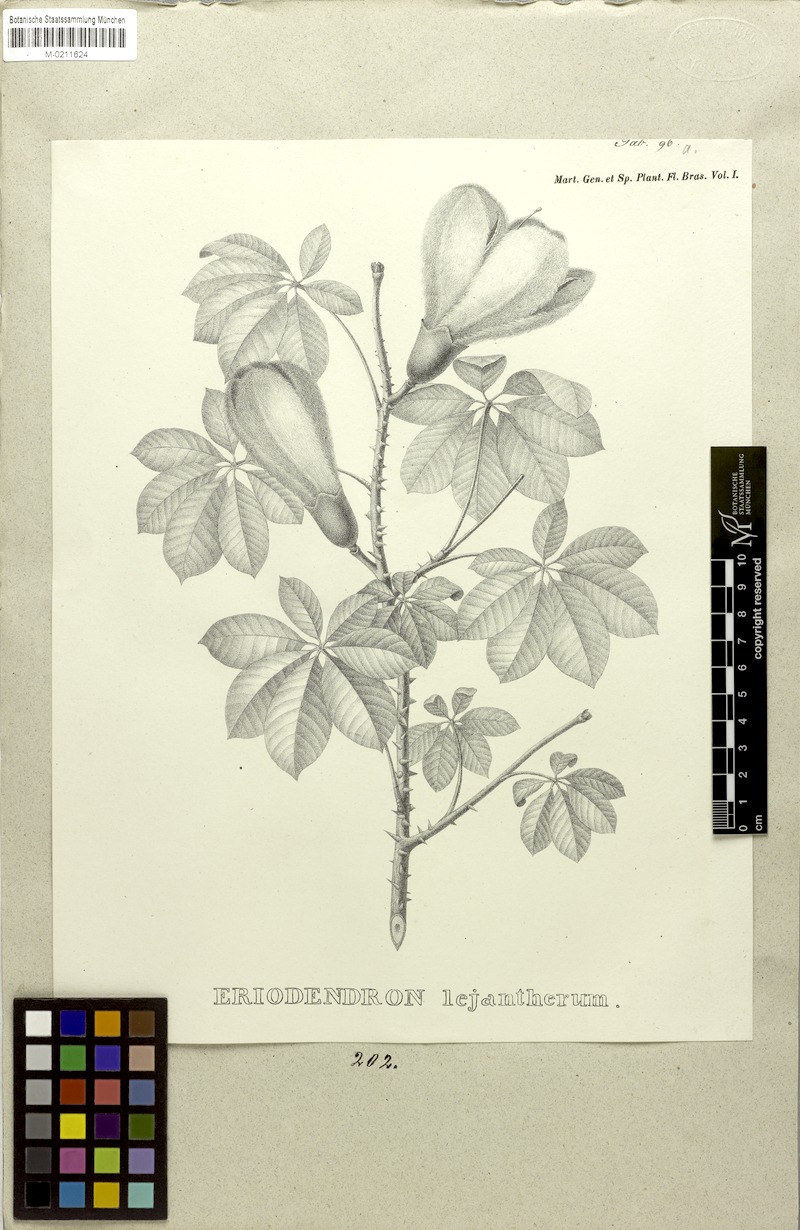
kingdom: Plantae
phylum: Tracheophyta
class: Magnoliopsida
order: Malvales
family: Malvaceae
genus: Ceiba
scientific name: Ceiba erianthos
